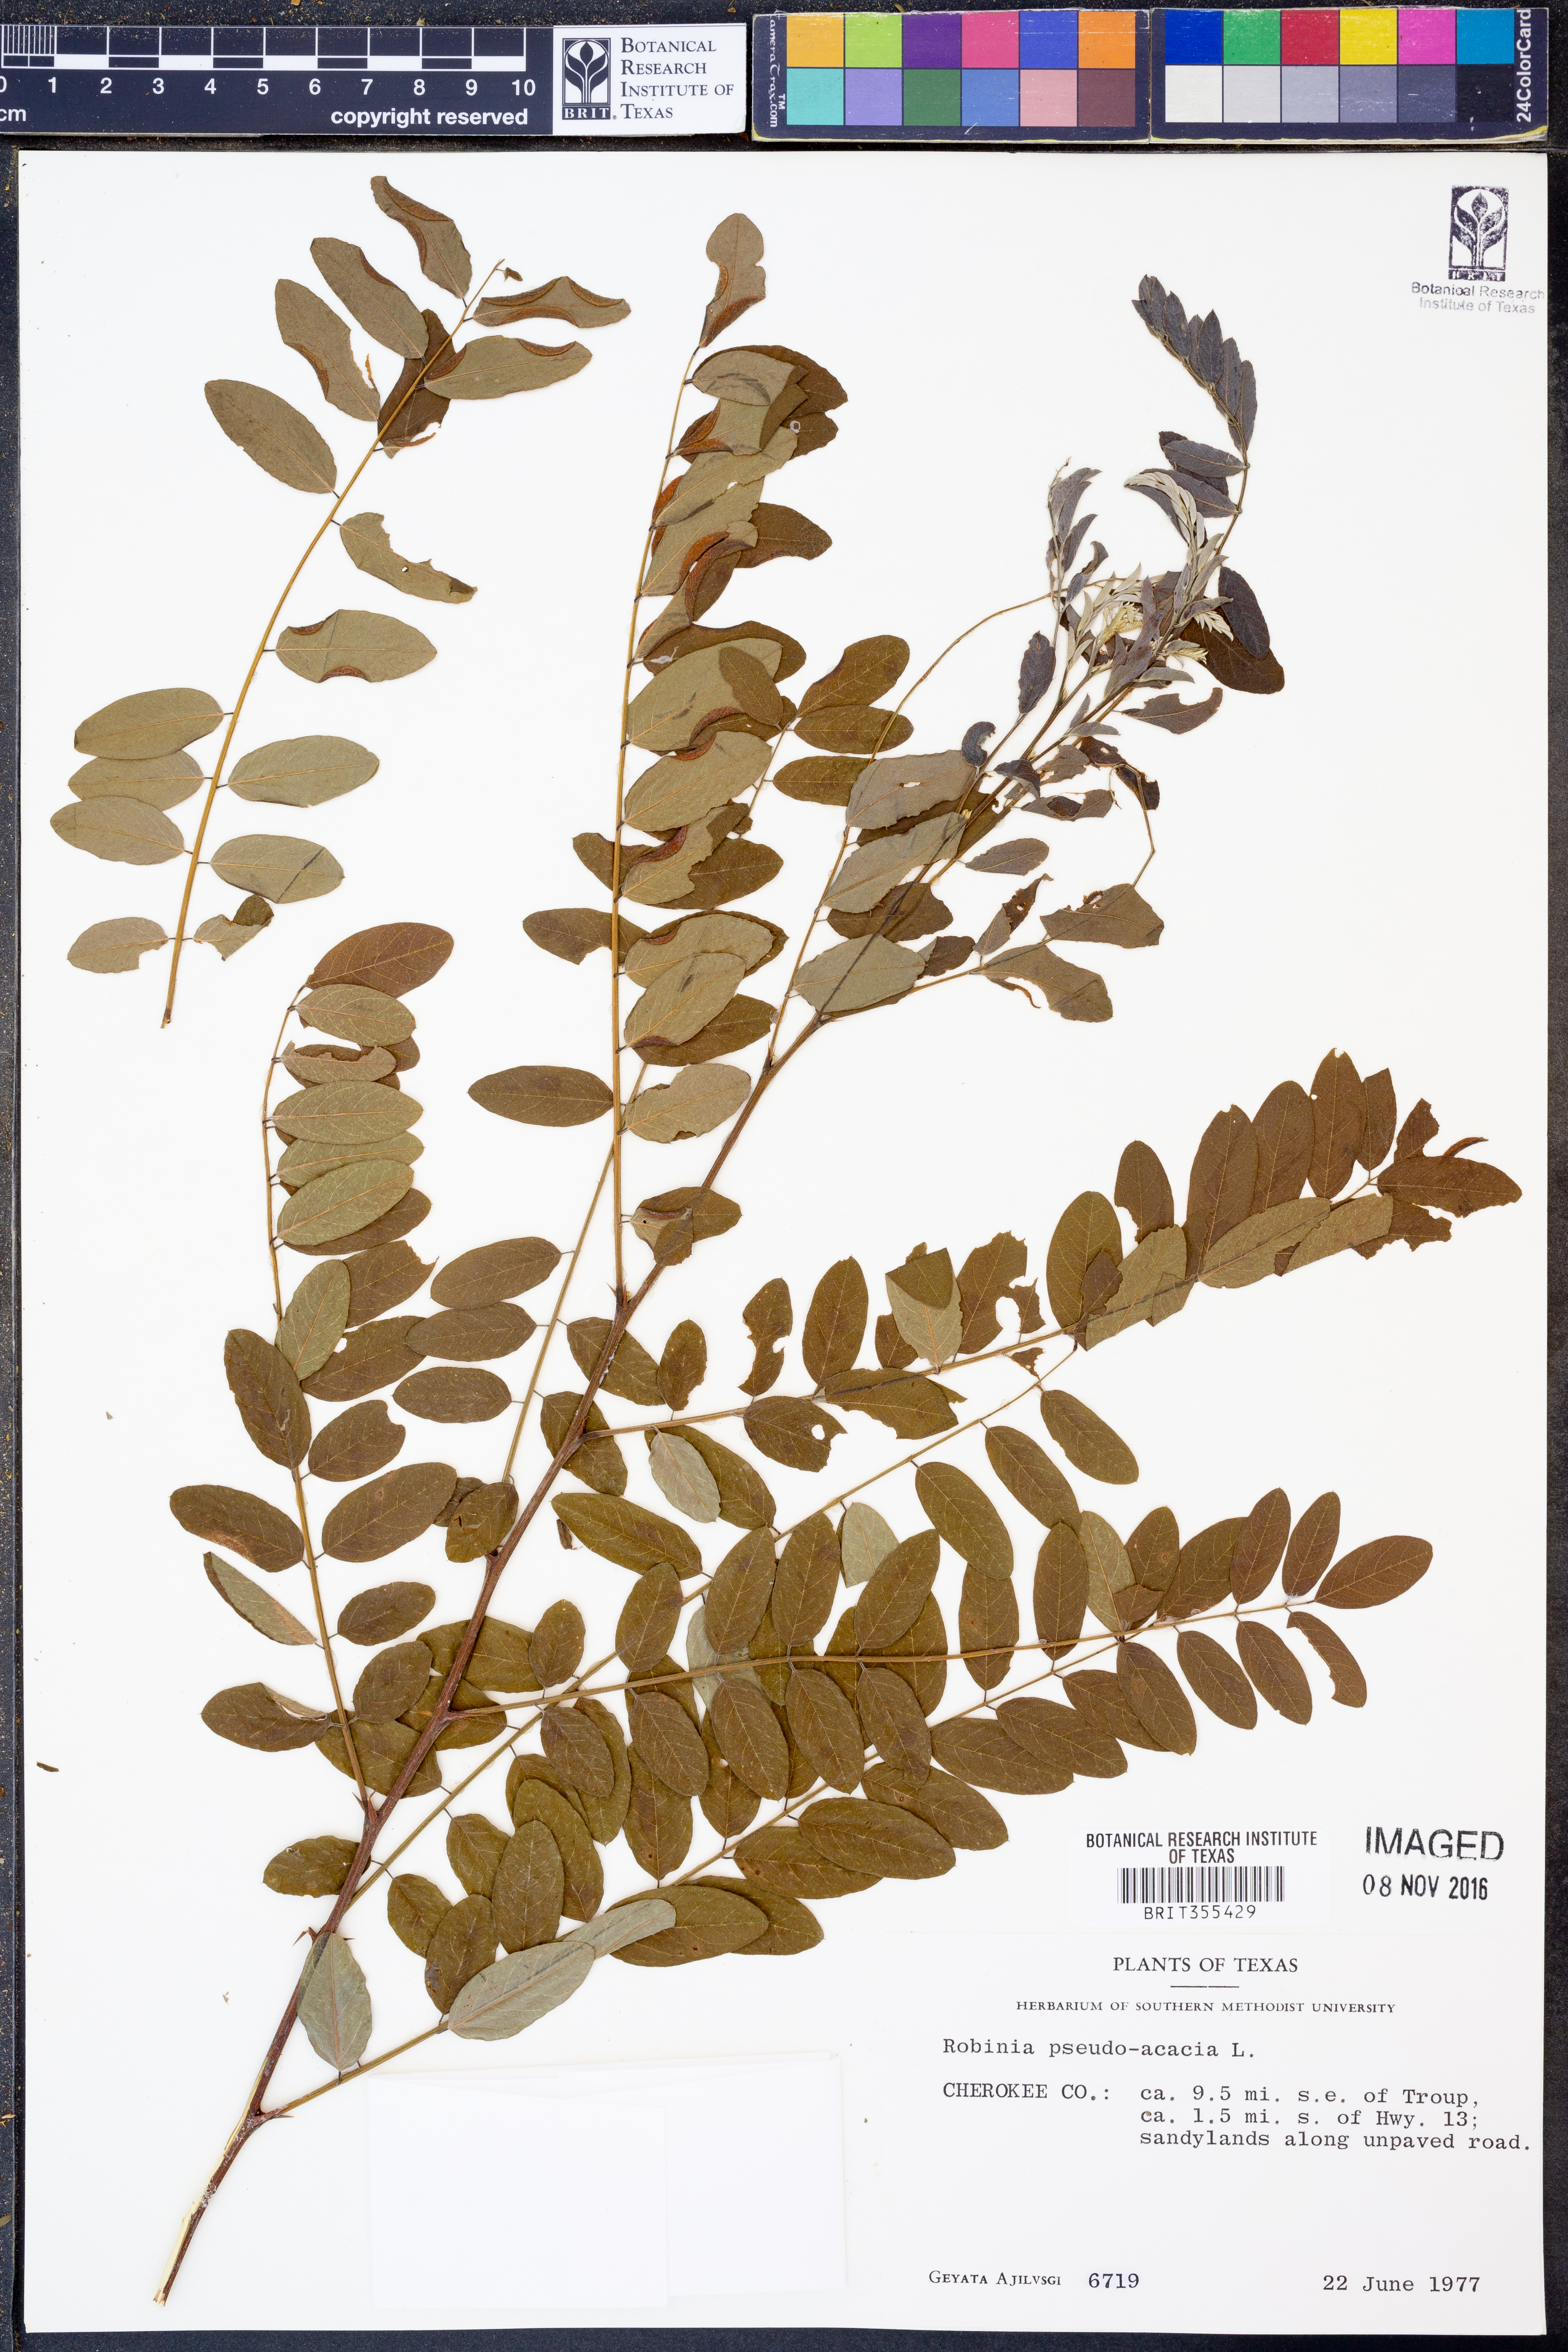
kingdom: Plantae
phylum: Tracheophyta
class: Magnoliopsida
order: Fabales
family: Fabaceae
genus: Robinia
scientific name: Robinia pseudoacacia
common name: Black locust
